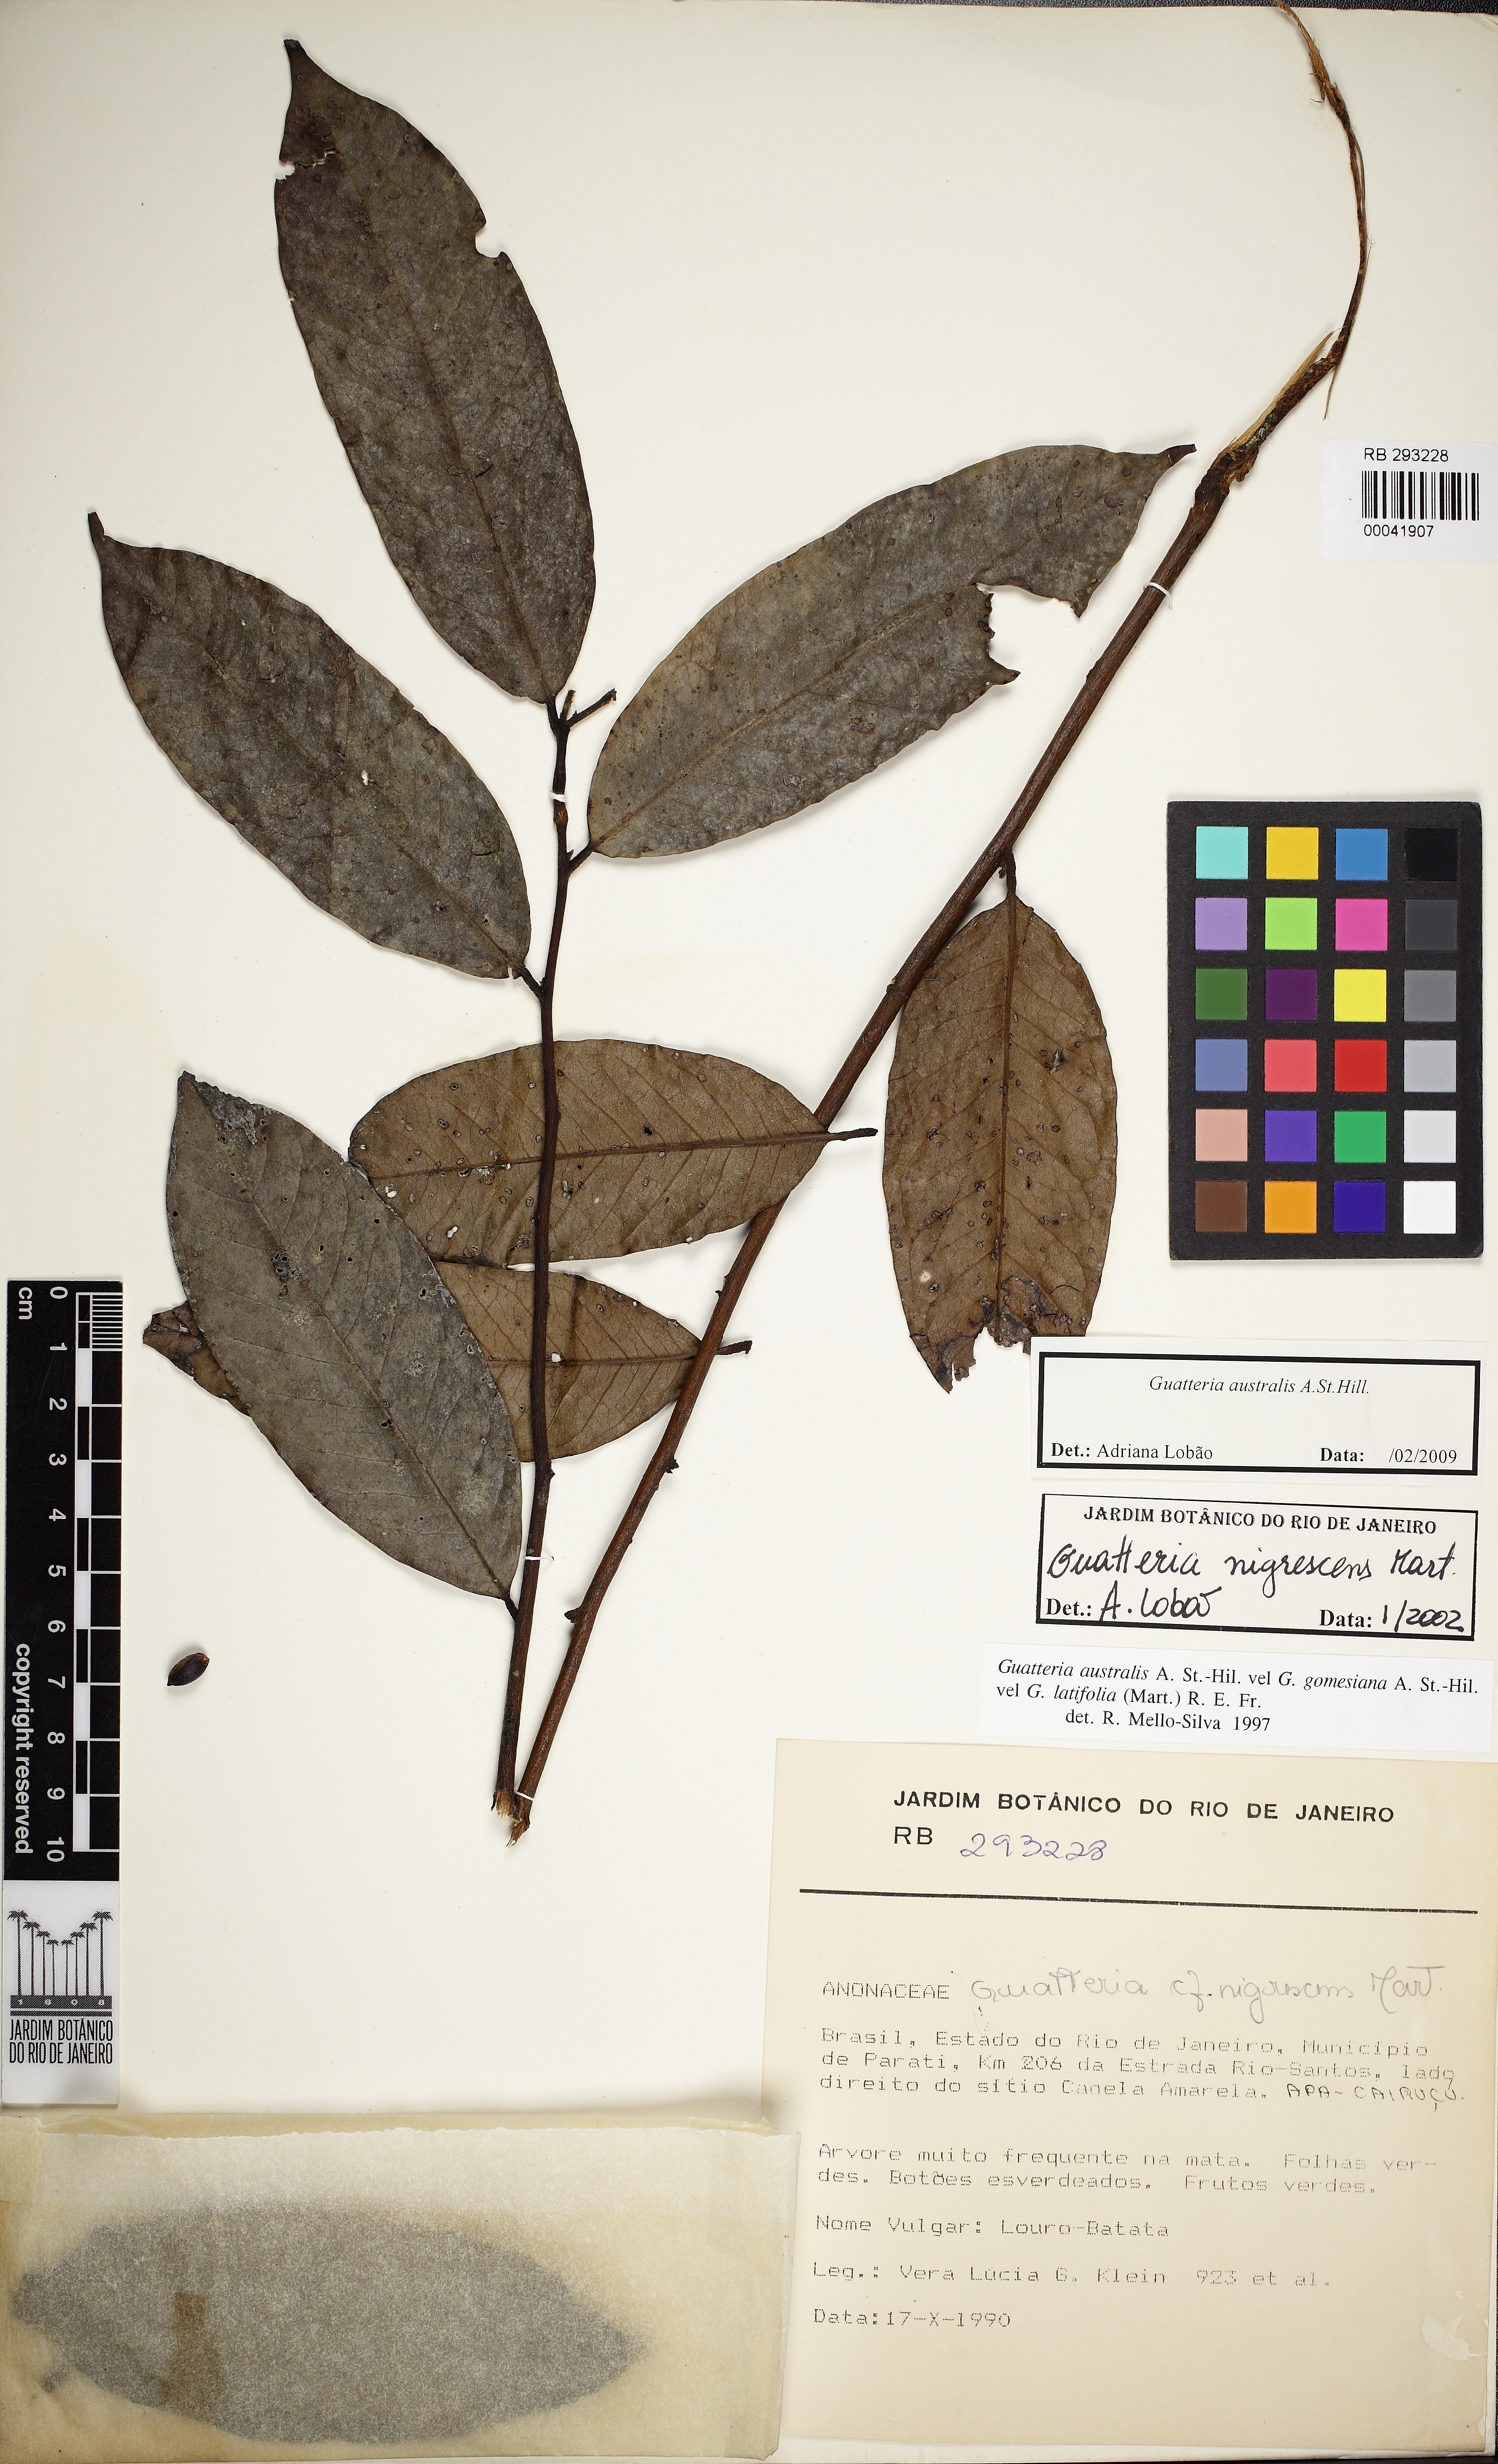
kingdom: Plantae
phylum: Tracheophyta
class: Magnoliopsida
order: Magnoliales
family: Annonaceae
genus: Guatteria
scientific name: Guatteria australis
